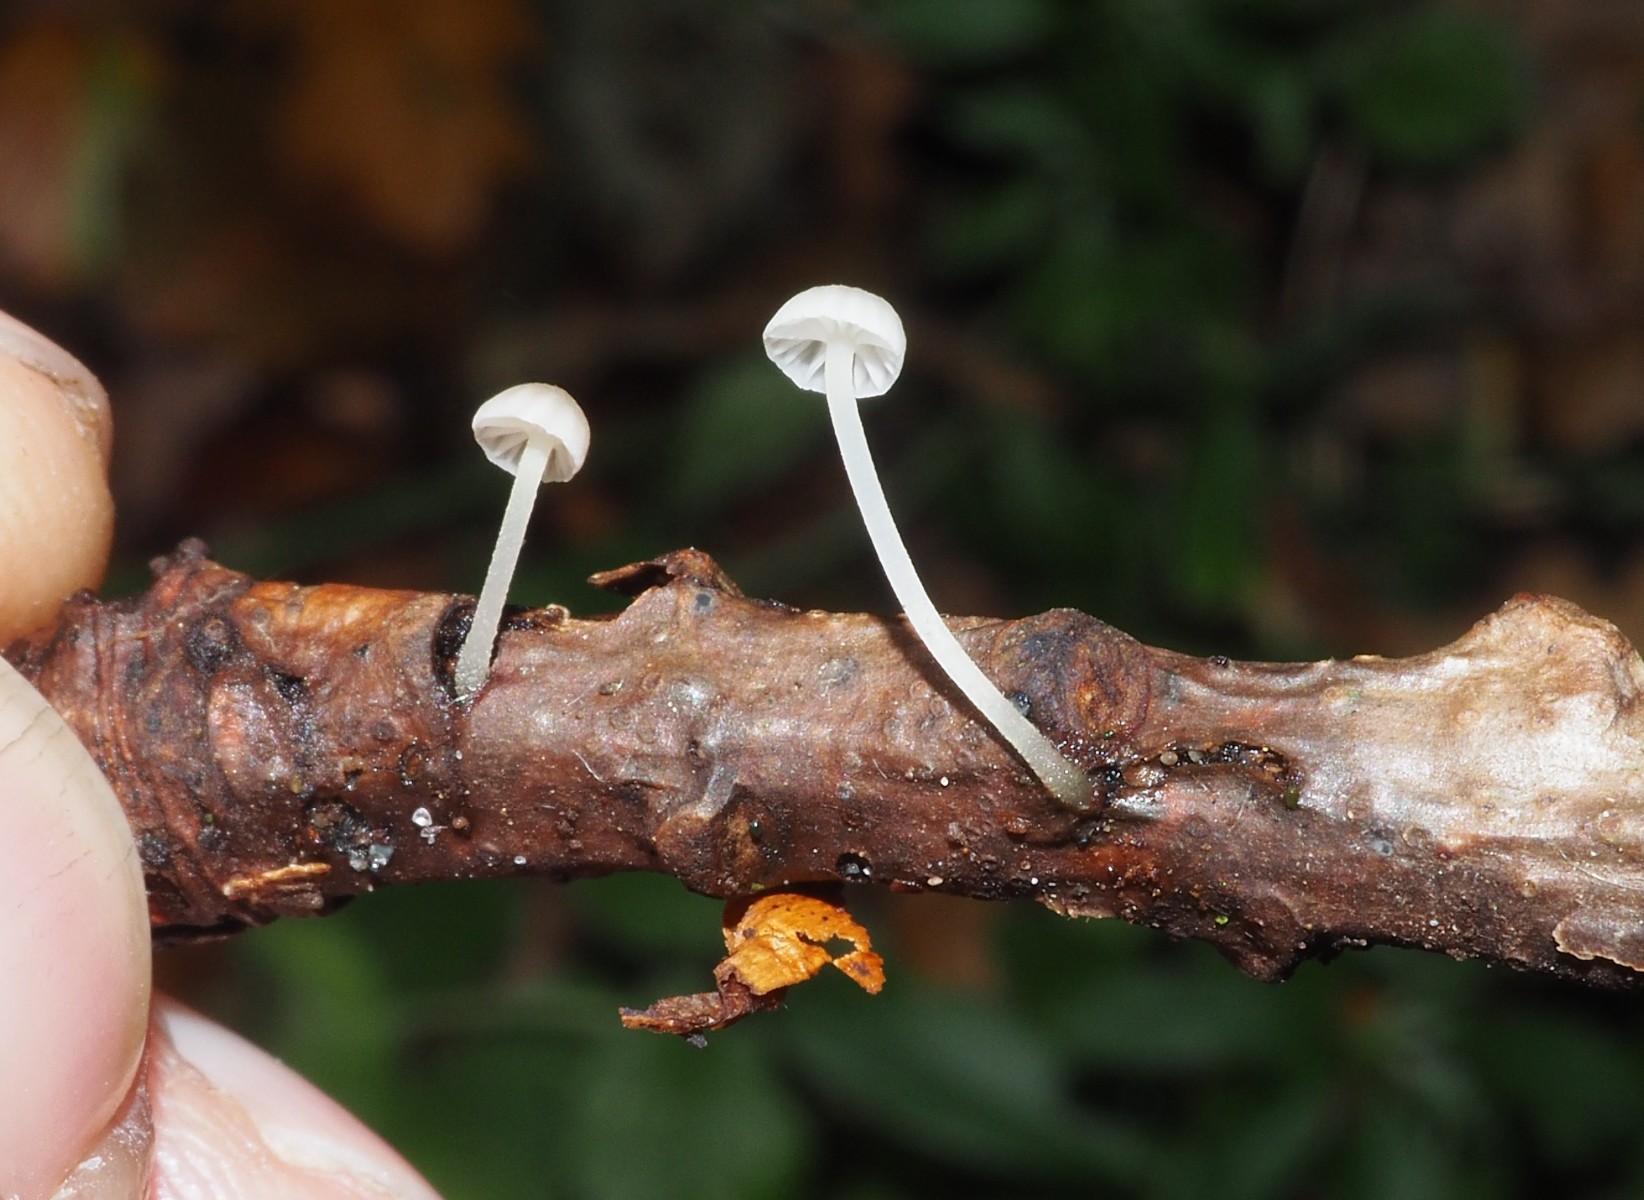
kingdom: Fungi
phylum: Basidiomycota
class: Agaricomycetes
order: Agaricales
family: Mycenaceae
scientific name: Mycenaceae
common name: huesvampfamilien
